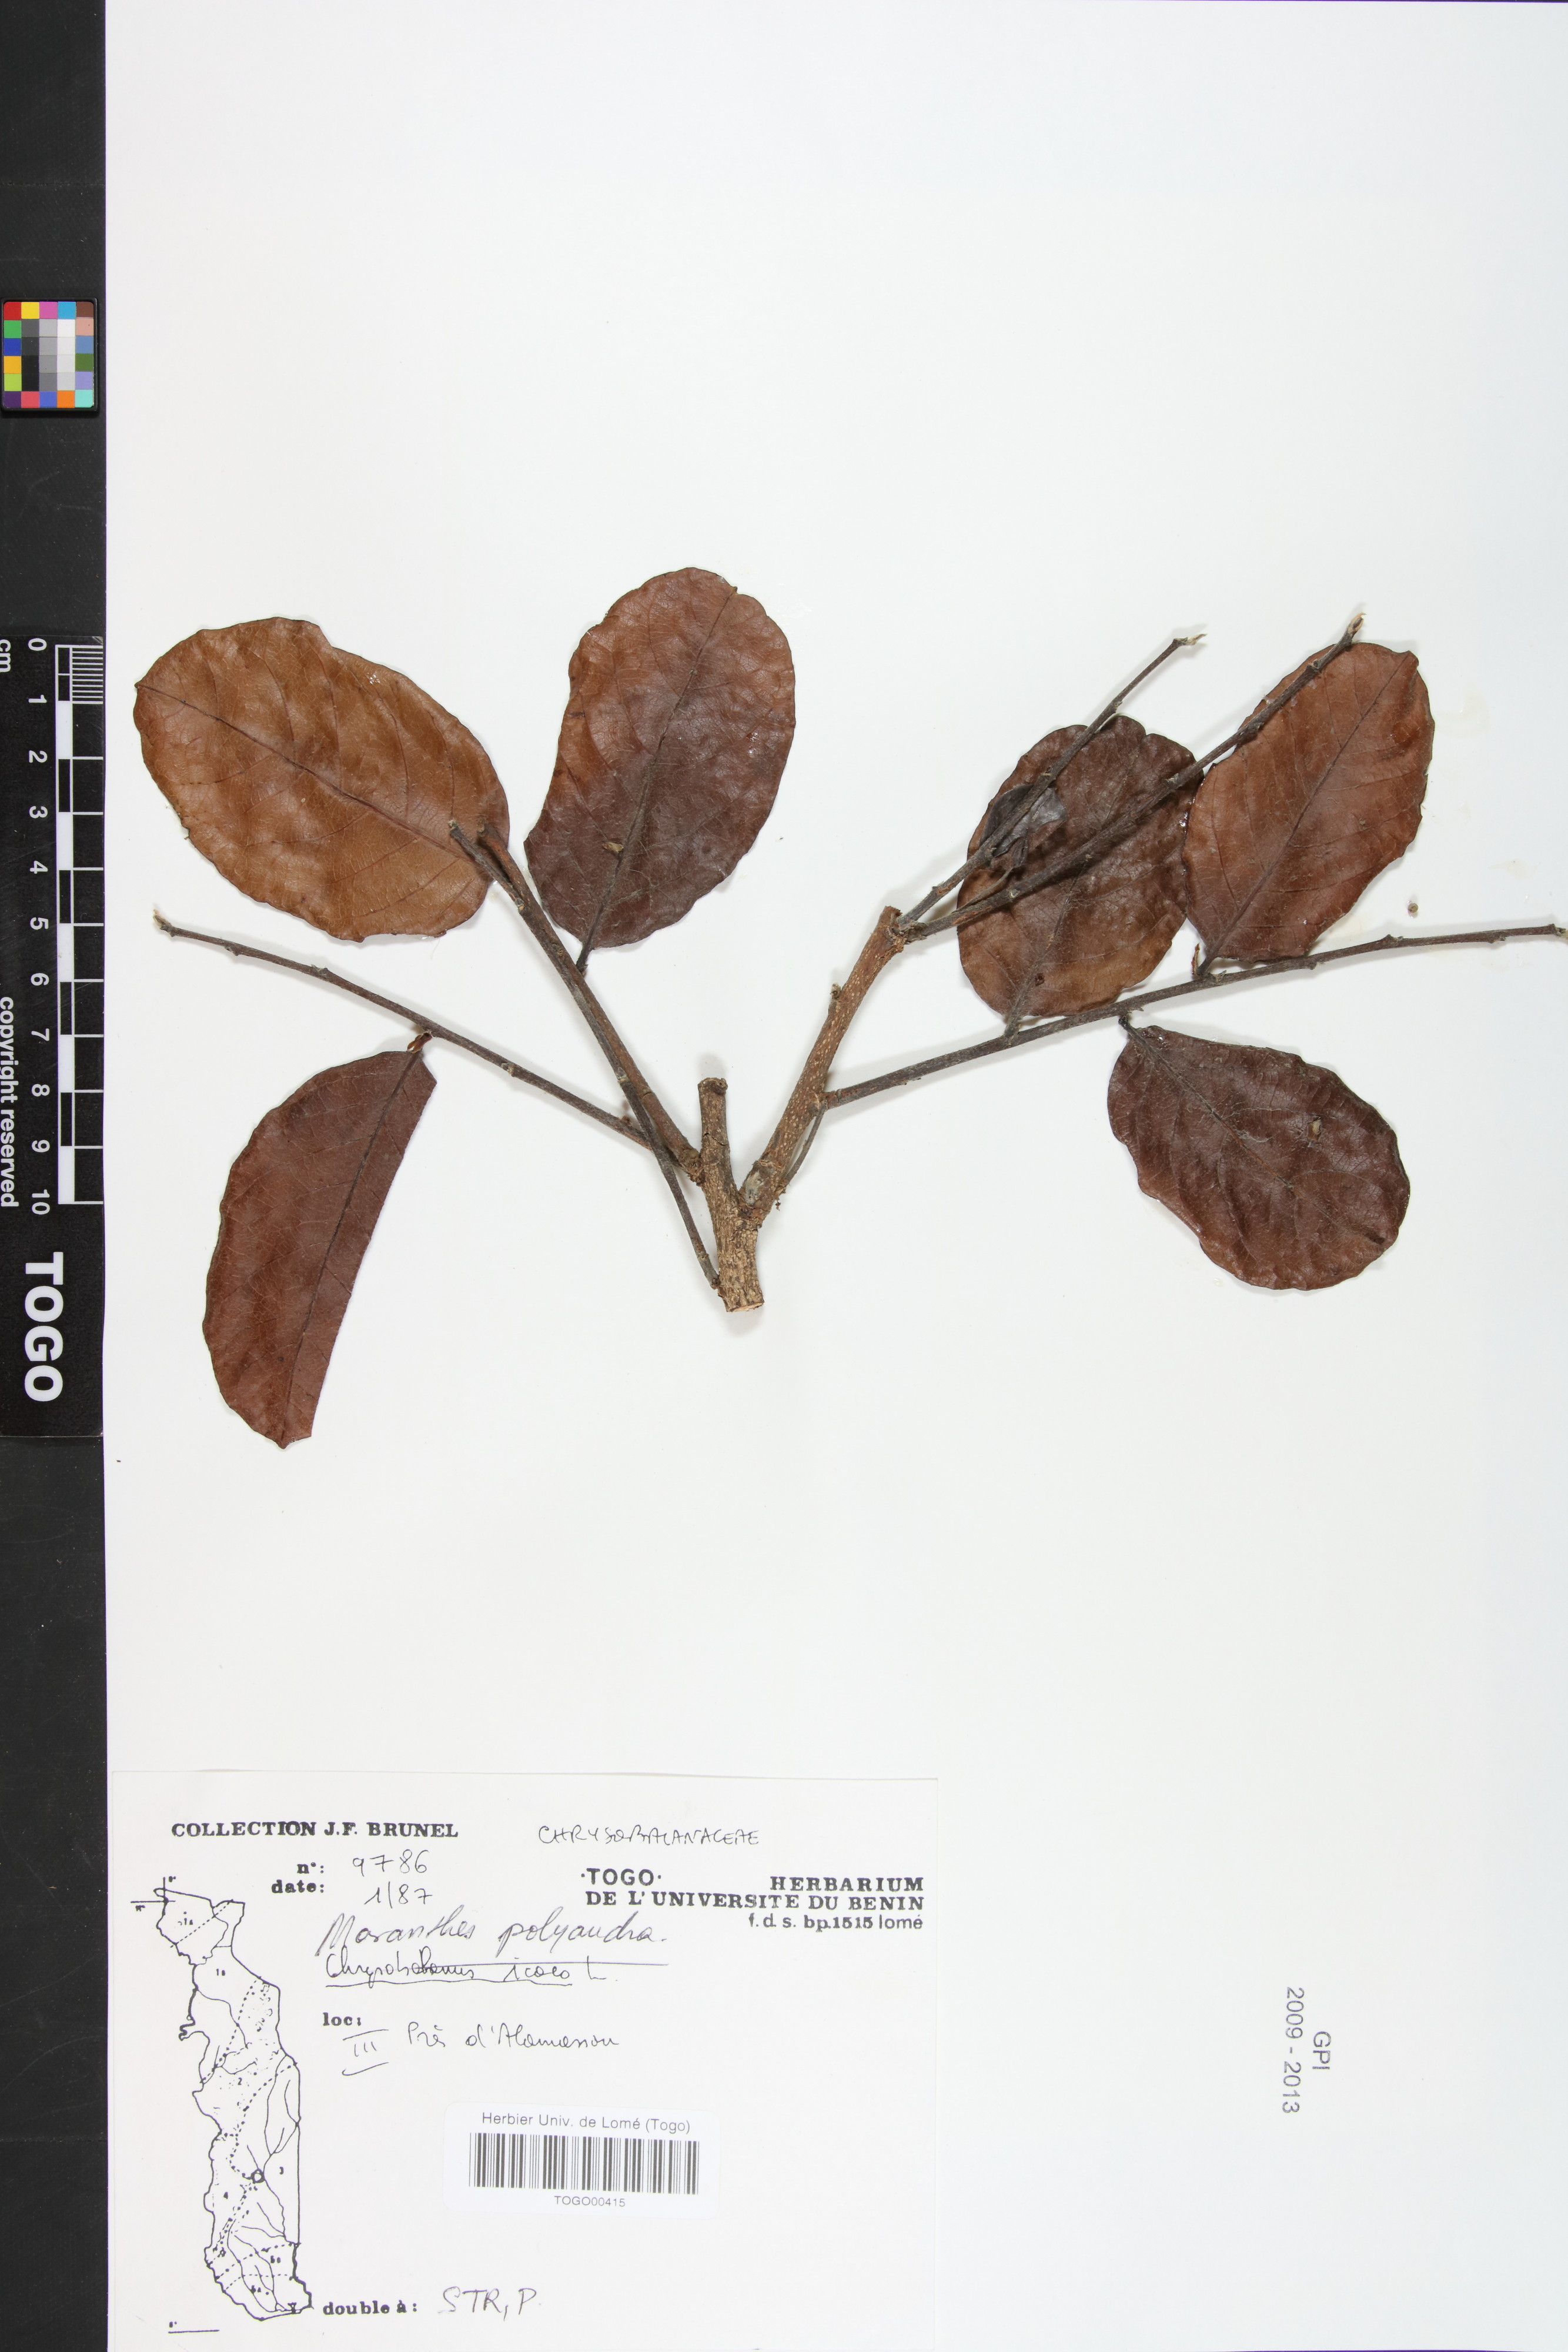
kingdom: Plantae
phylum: Tracheophyta
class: Magnoliopsida
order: Malpighiales
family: Chrysobalanaceae
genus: Maranthes
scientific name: Maranthes kerstingii
